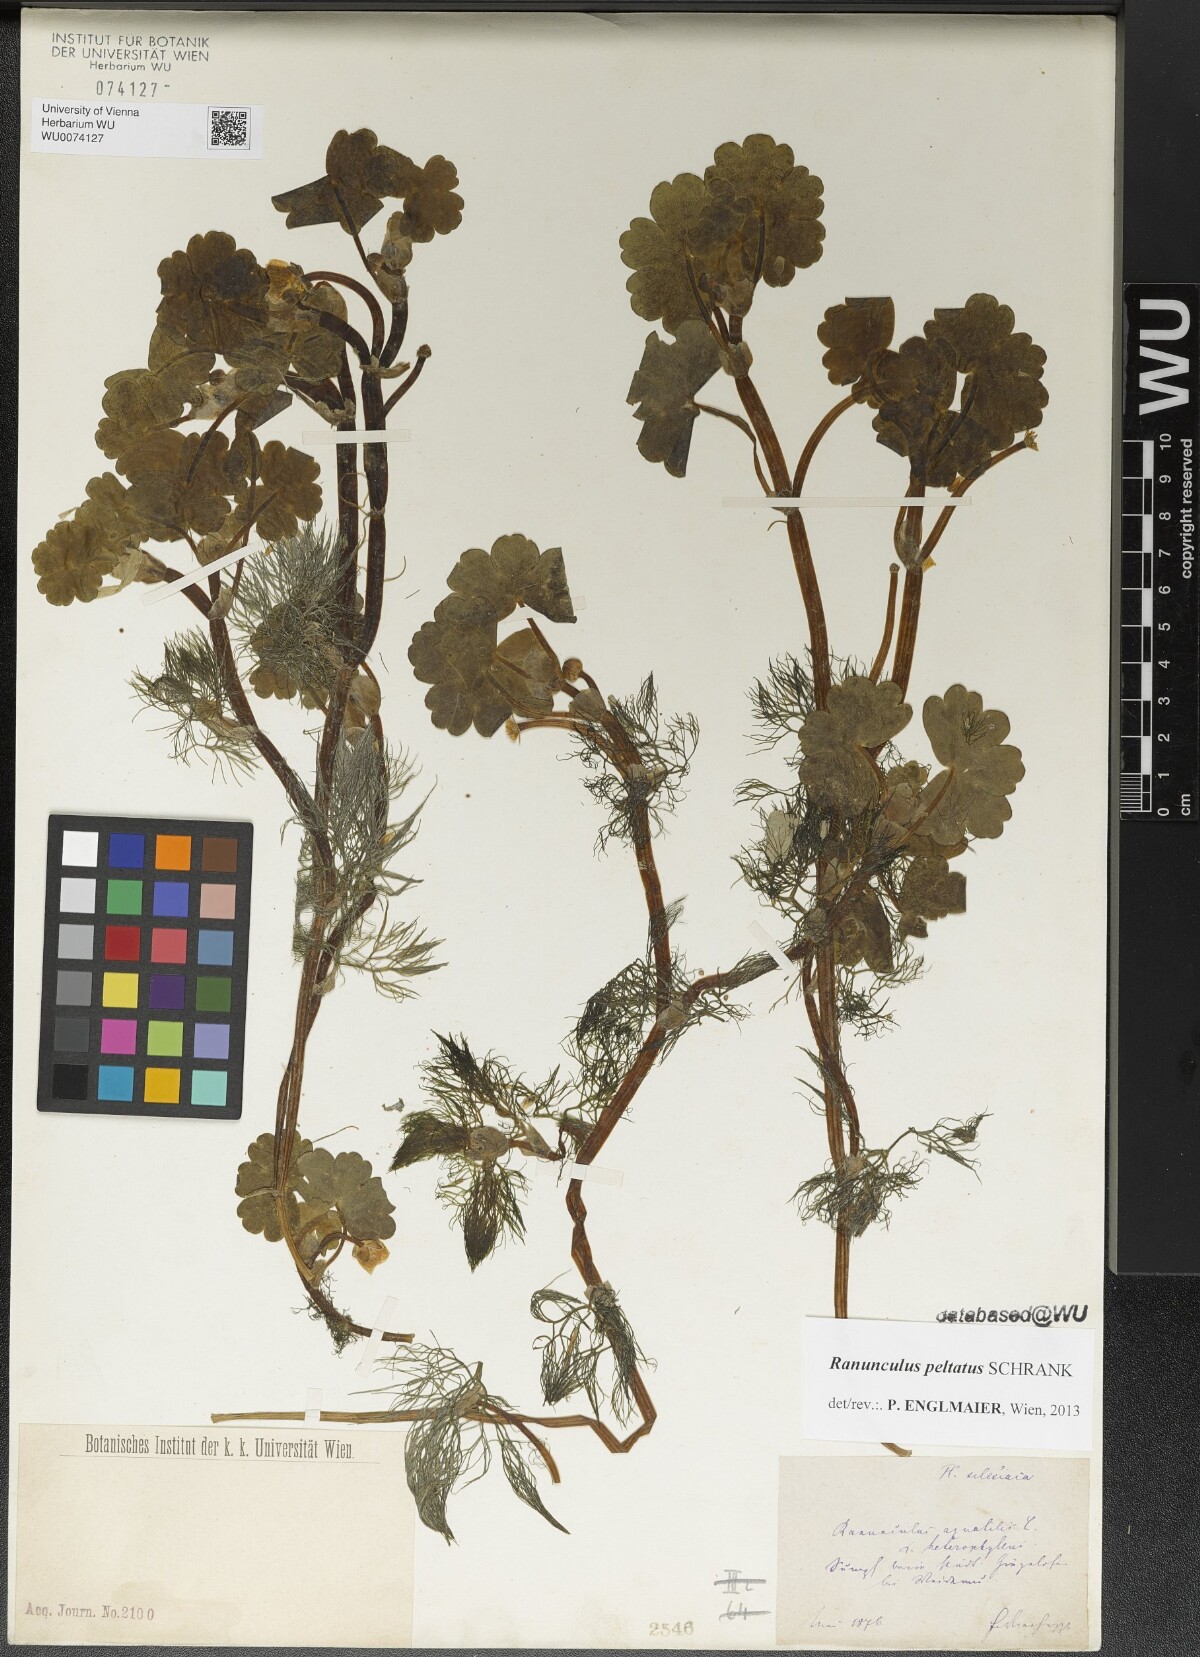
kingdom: Plantae
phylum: Tracheophyta
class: Magnoliopsida
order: Ranunculales
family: Ranunculaceae
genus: Ranunculus
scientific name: Ranunculus peltatus
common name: Pond water-crowfoot
